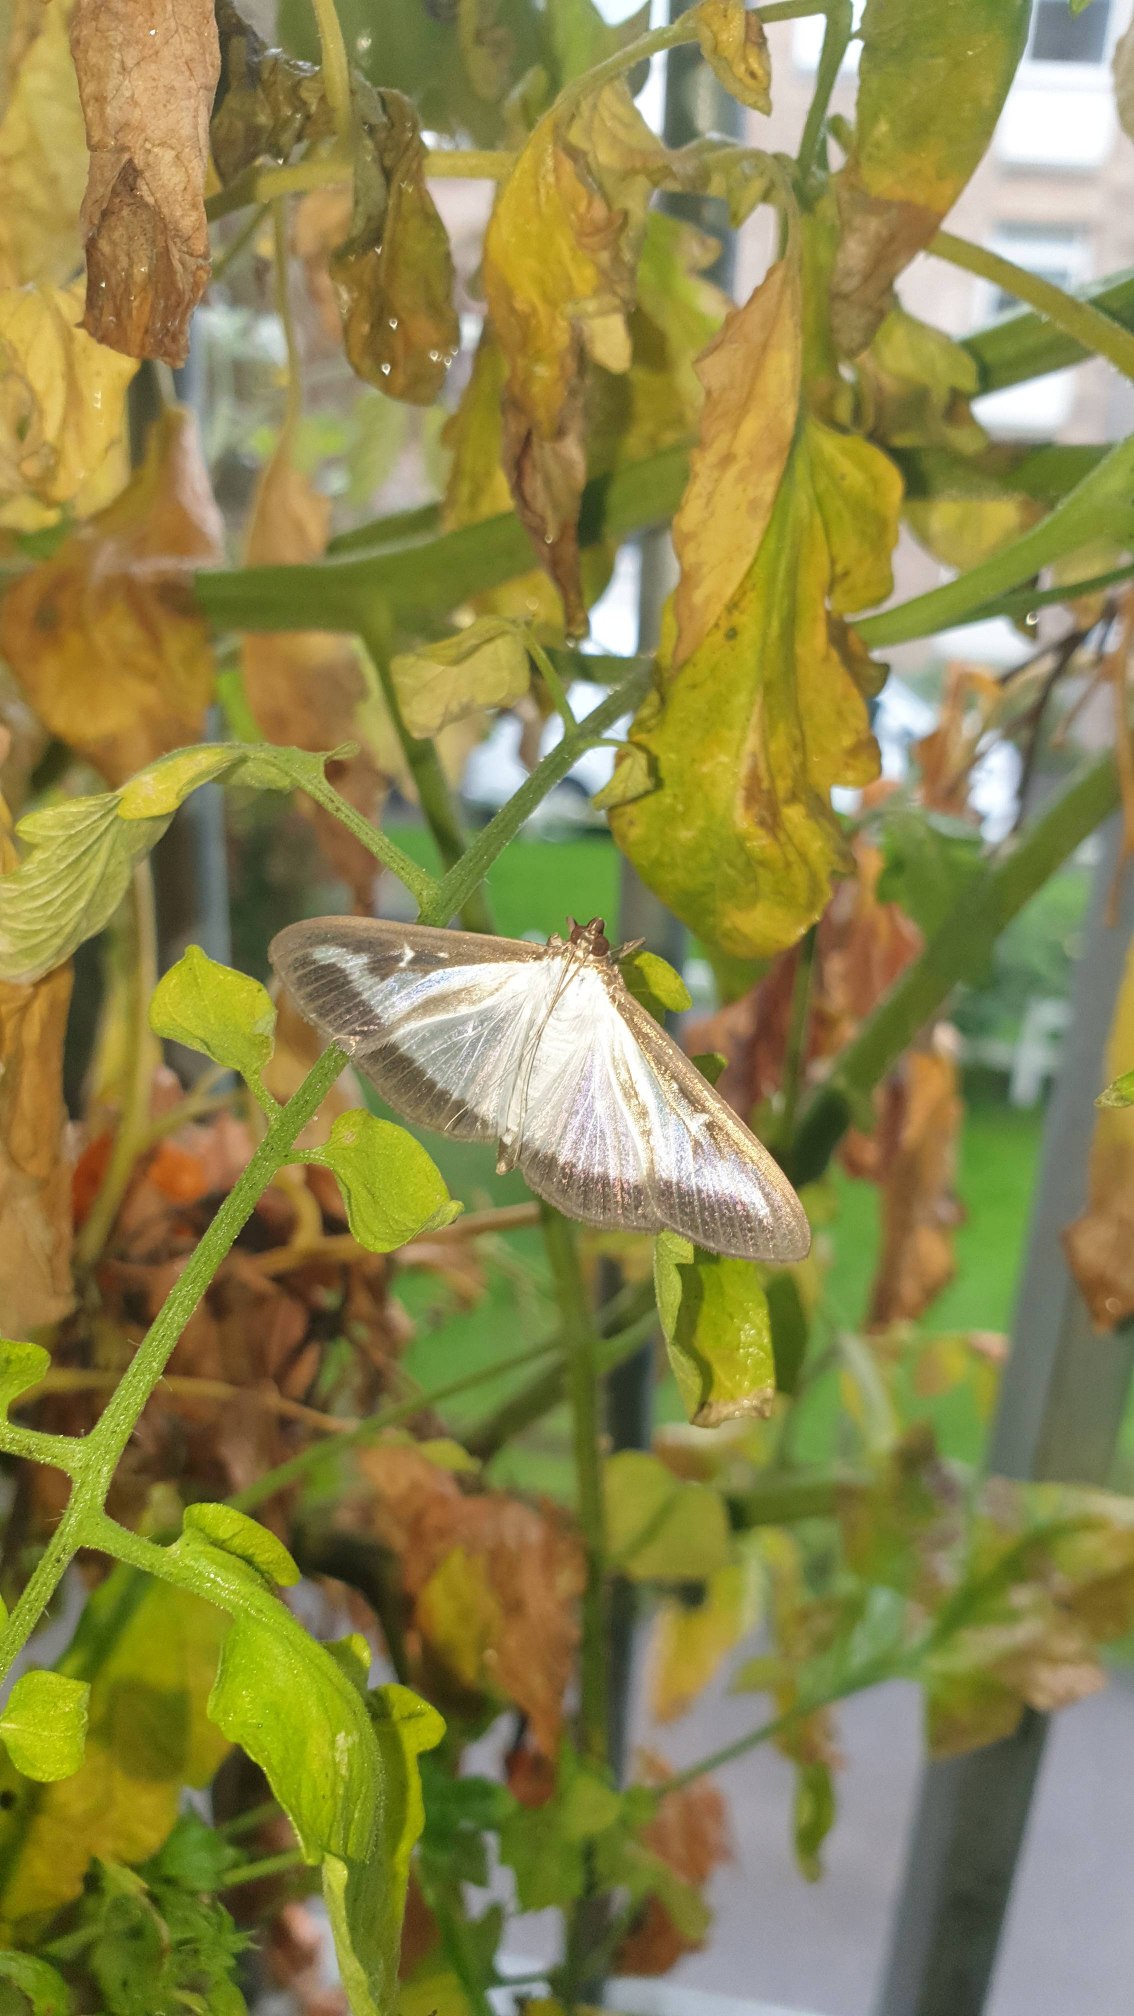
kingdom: Animalia
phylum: Arthropoda
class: Insecta
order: Lepidoptera
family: Crambidae
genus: Cydalima
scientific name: Cydalima perspectalis
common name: Buksbomhalvmøl
